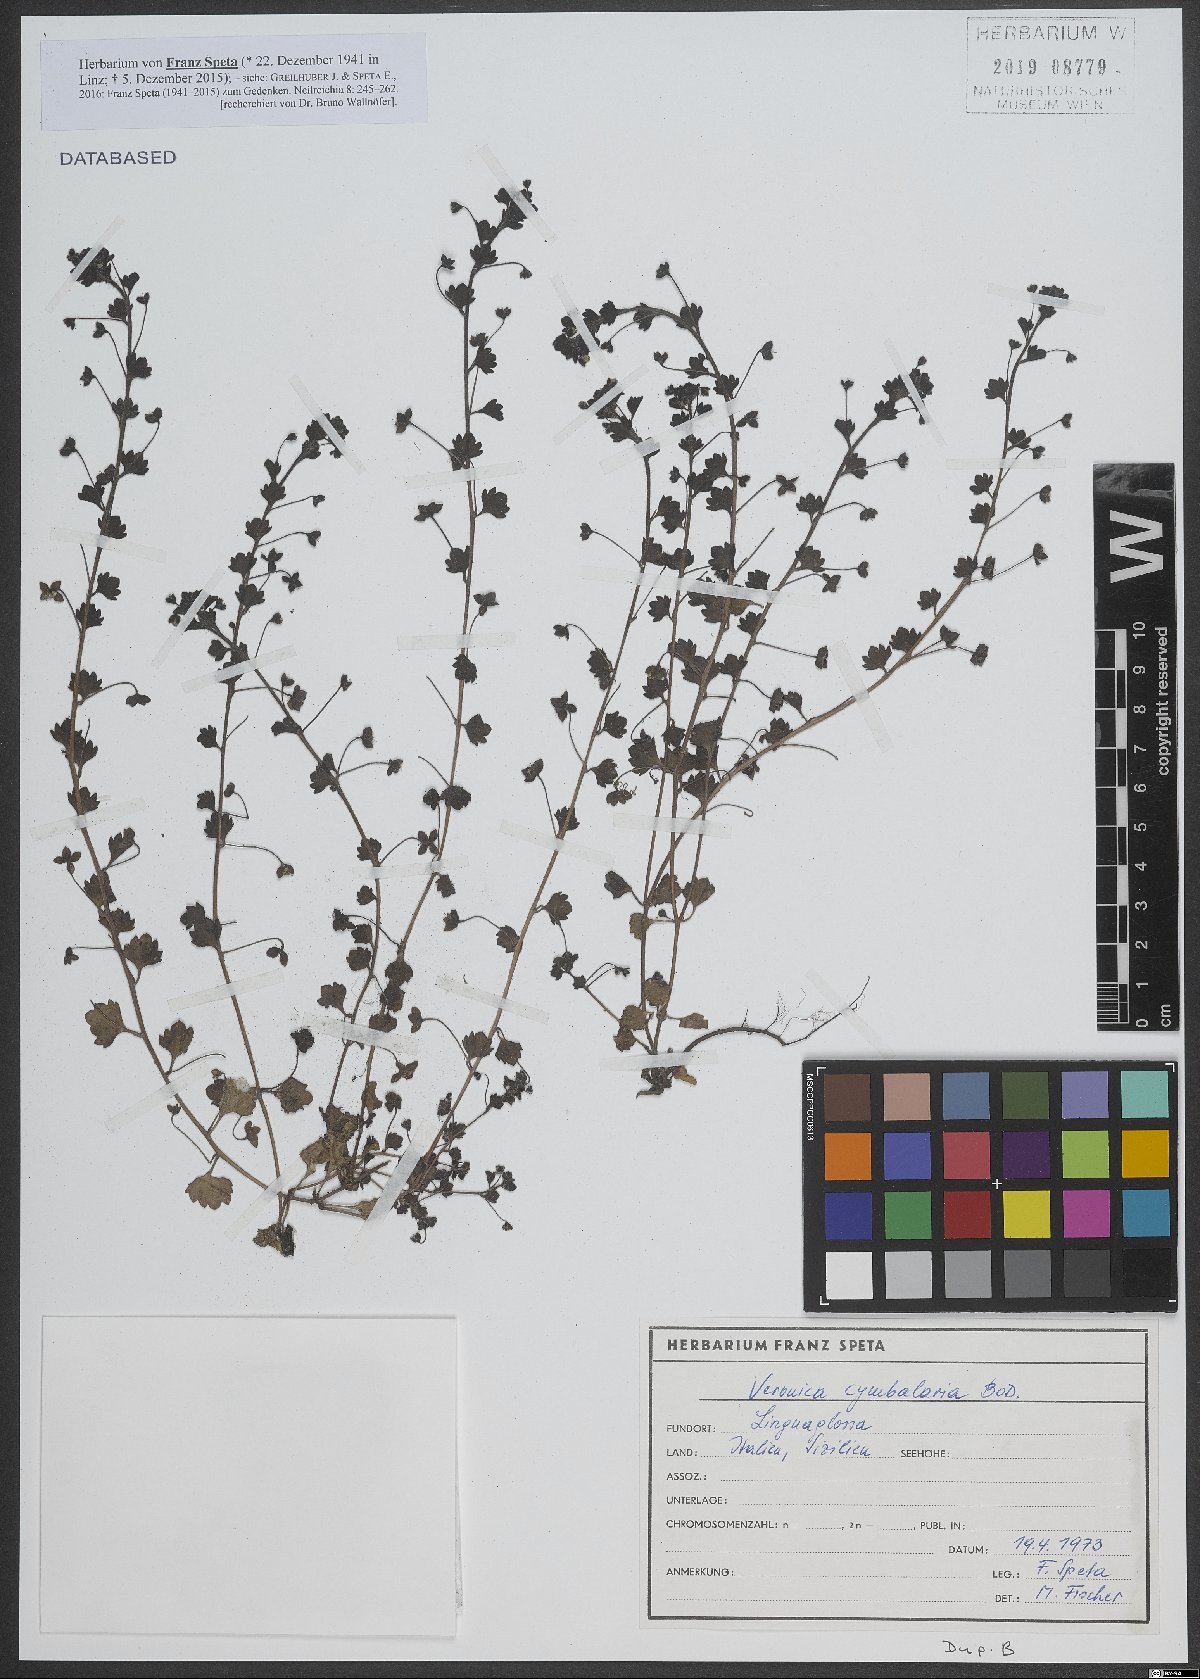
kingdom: Plantae
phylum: Tracheophyta
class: Magnoliopsida
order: Lamiales
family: Plantaginaceae
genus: Veronica
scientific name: Veronica cymbalaria
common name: Pale speedwell
